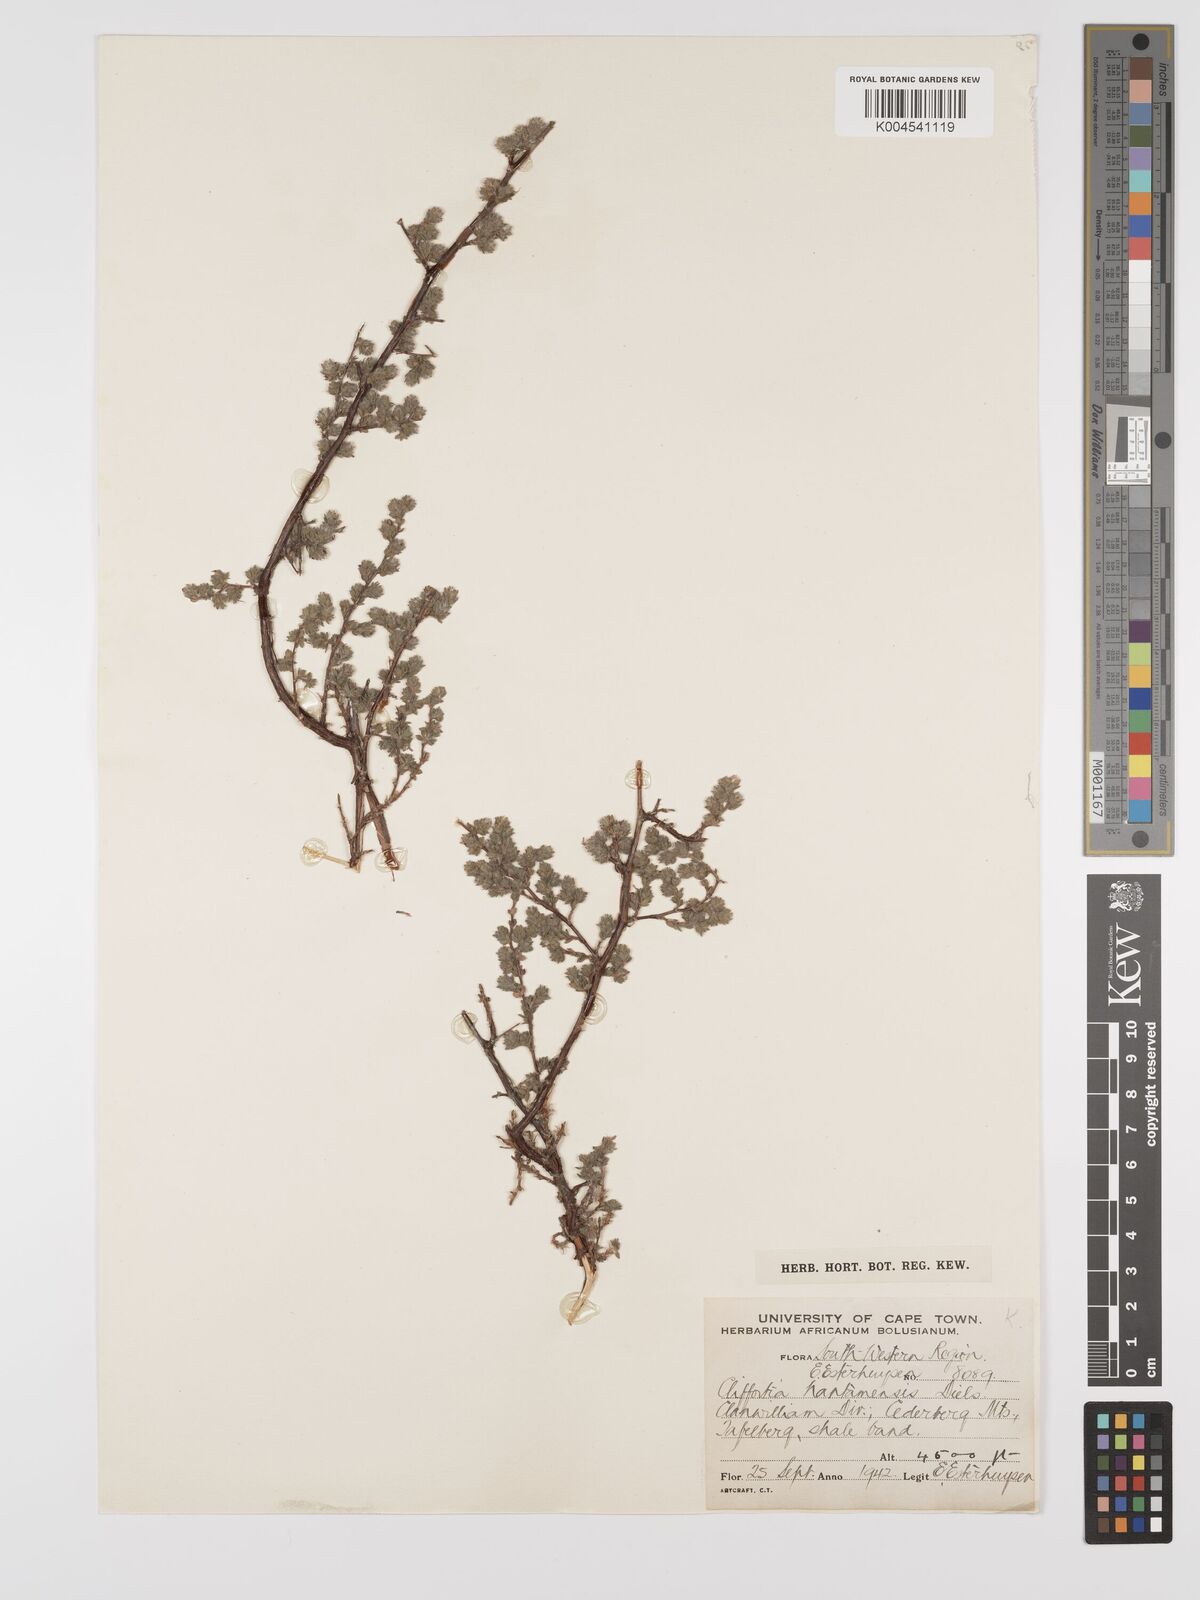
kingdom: Plantae
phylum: Tracheophyta
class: Magnoliopsida
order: Rosales
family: Rosaceae
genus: Cliffortia
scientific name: Cliffortia hantamensis
